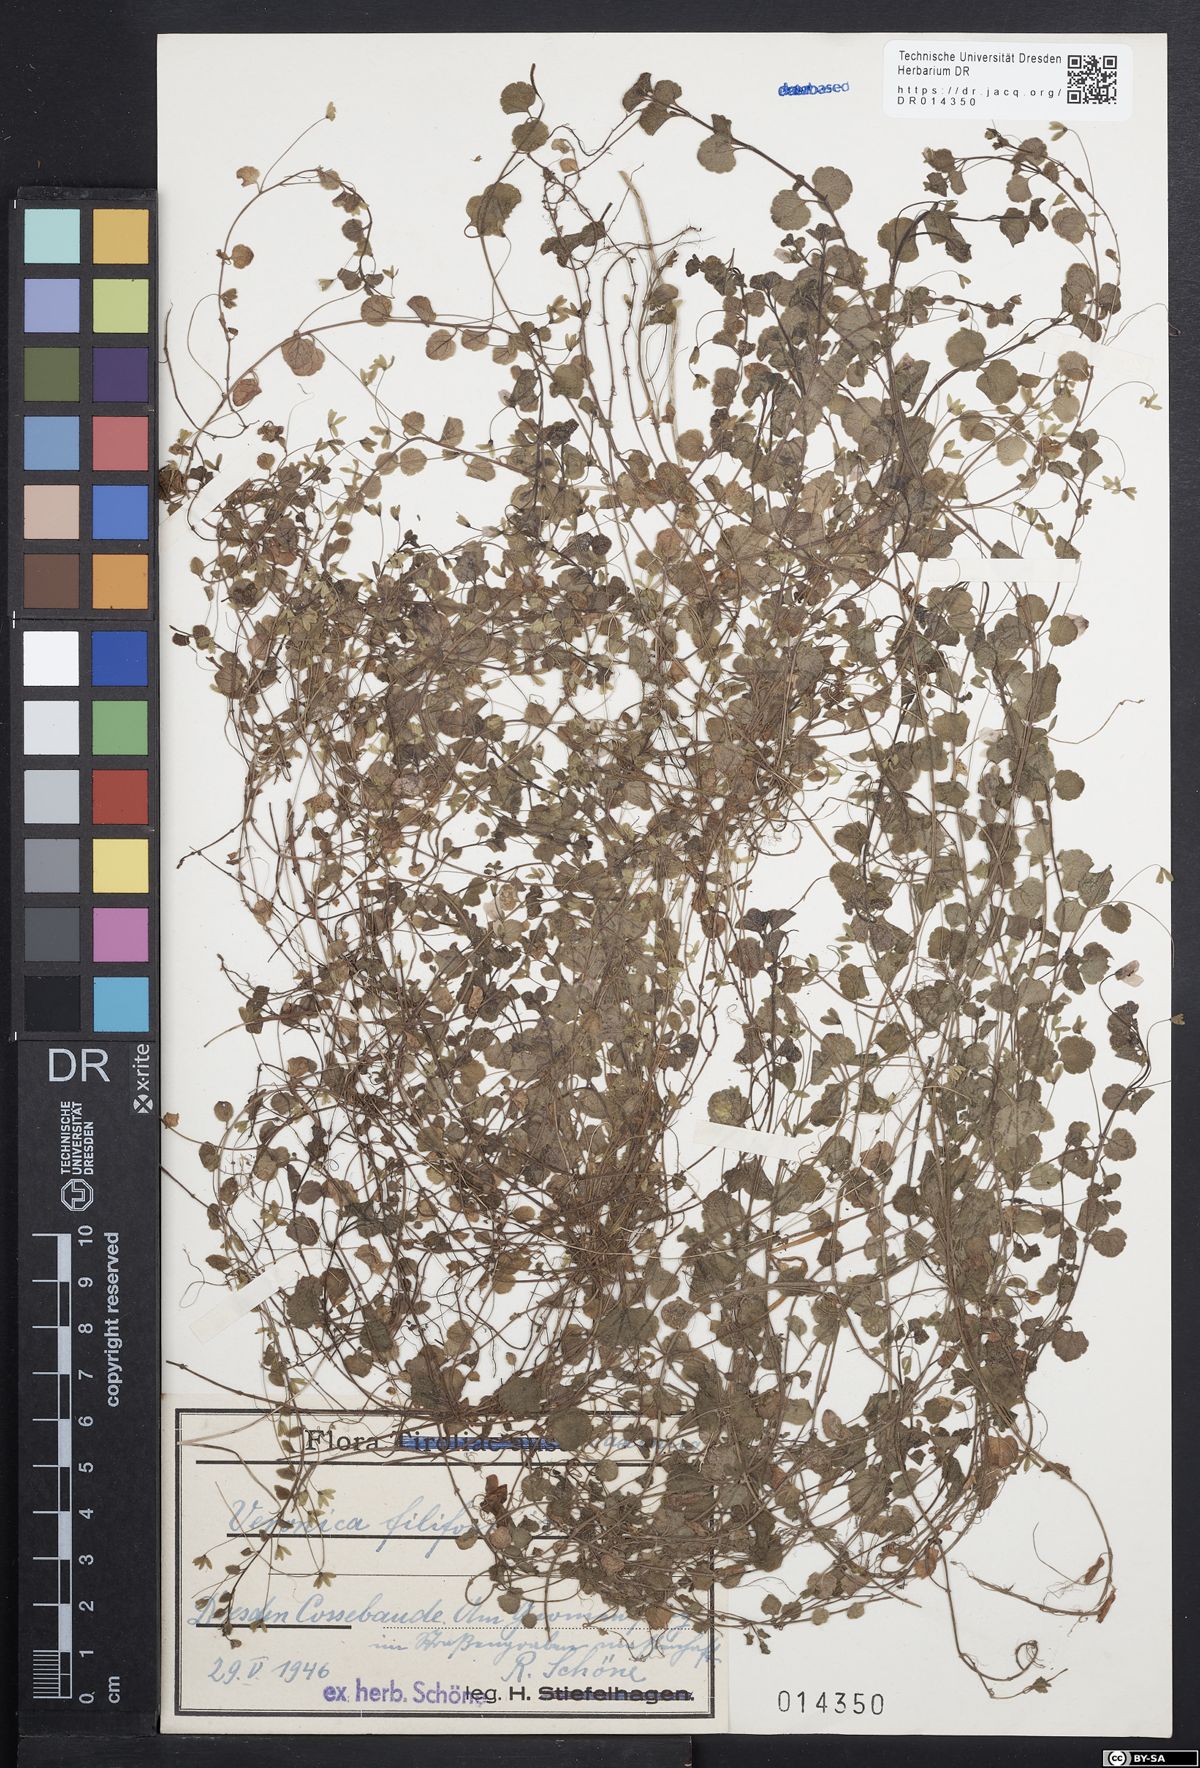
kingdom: Plantae
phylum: Tracheophyta
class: Magnoliopsida
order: Lamiales
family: Plantaginaceae
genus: Veronica
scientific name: Veronica filiformis
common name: Slender speedwell
